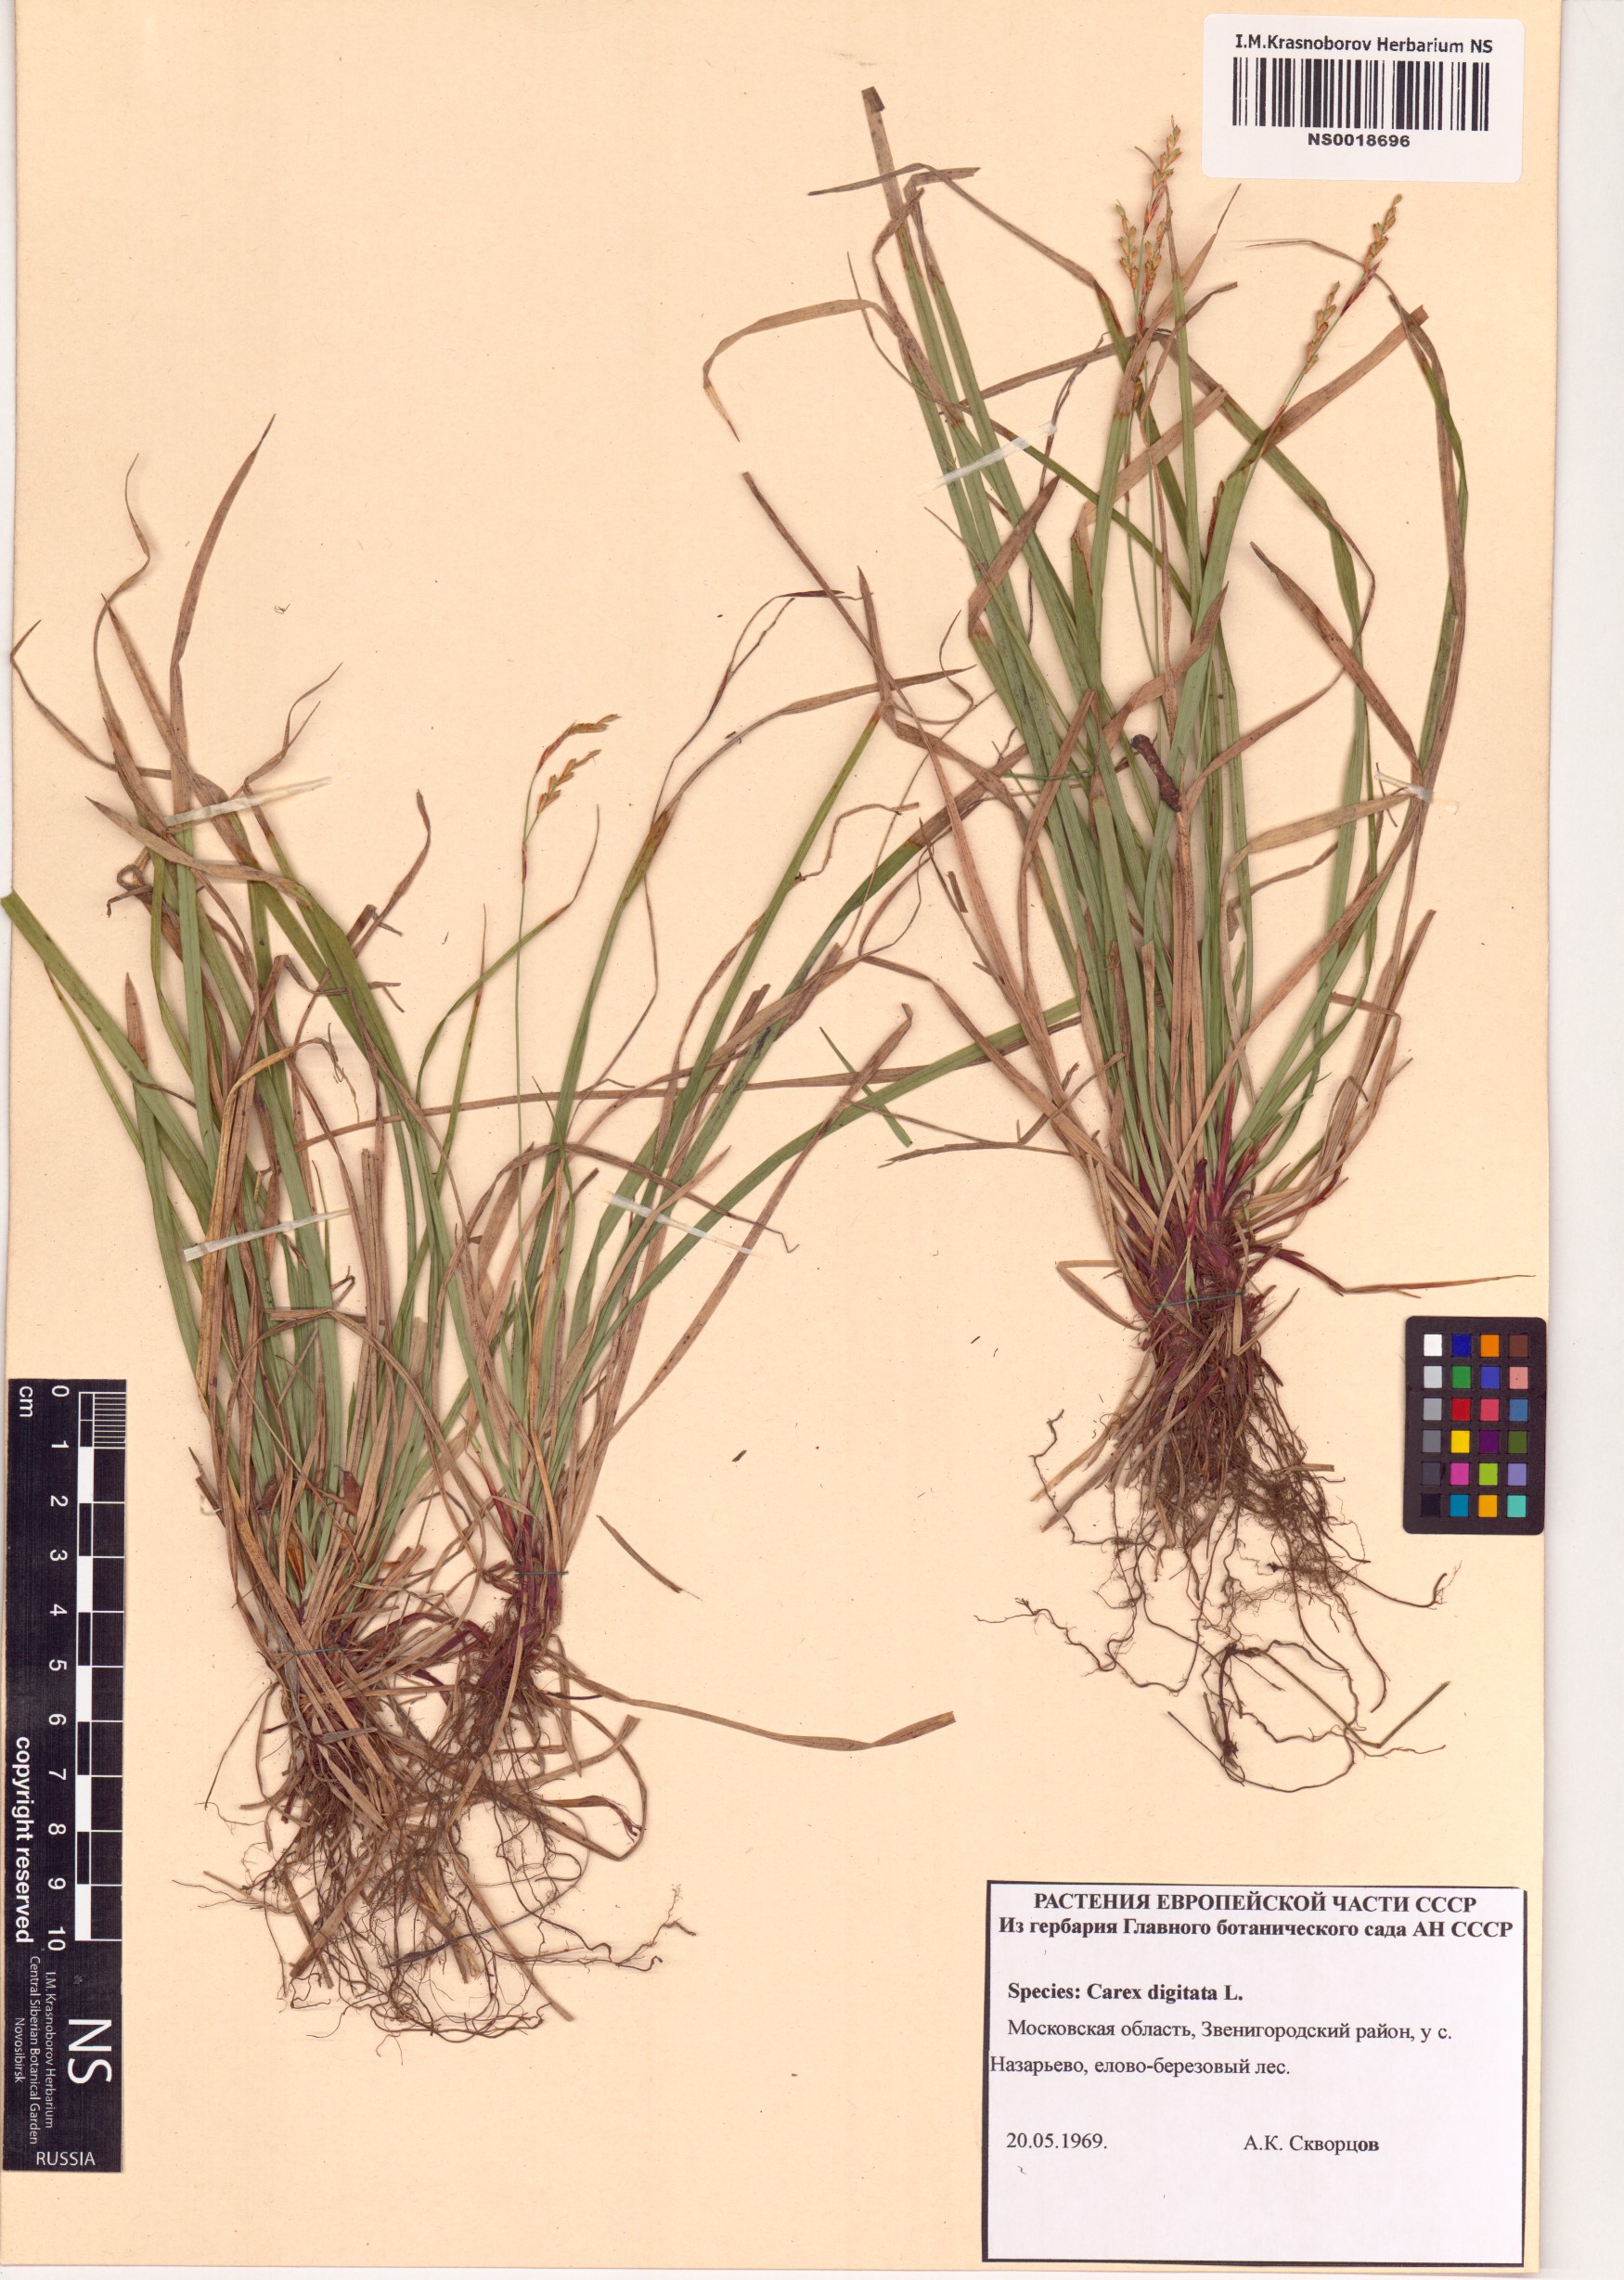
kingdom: Plantae
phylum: Tracheophyta
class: Liliopsida
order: Poales
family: Cyperaceae
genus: Carex
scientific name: Carex digitata
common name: Fingered sedge
